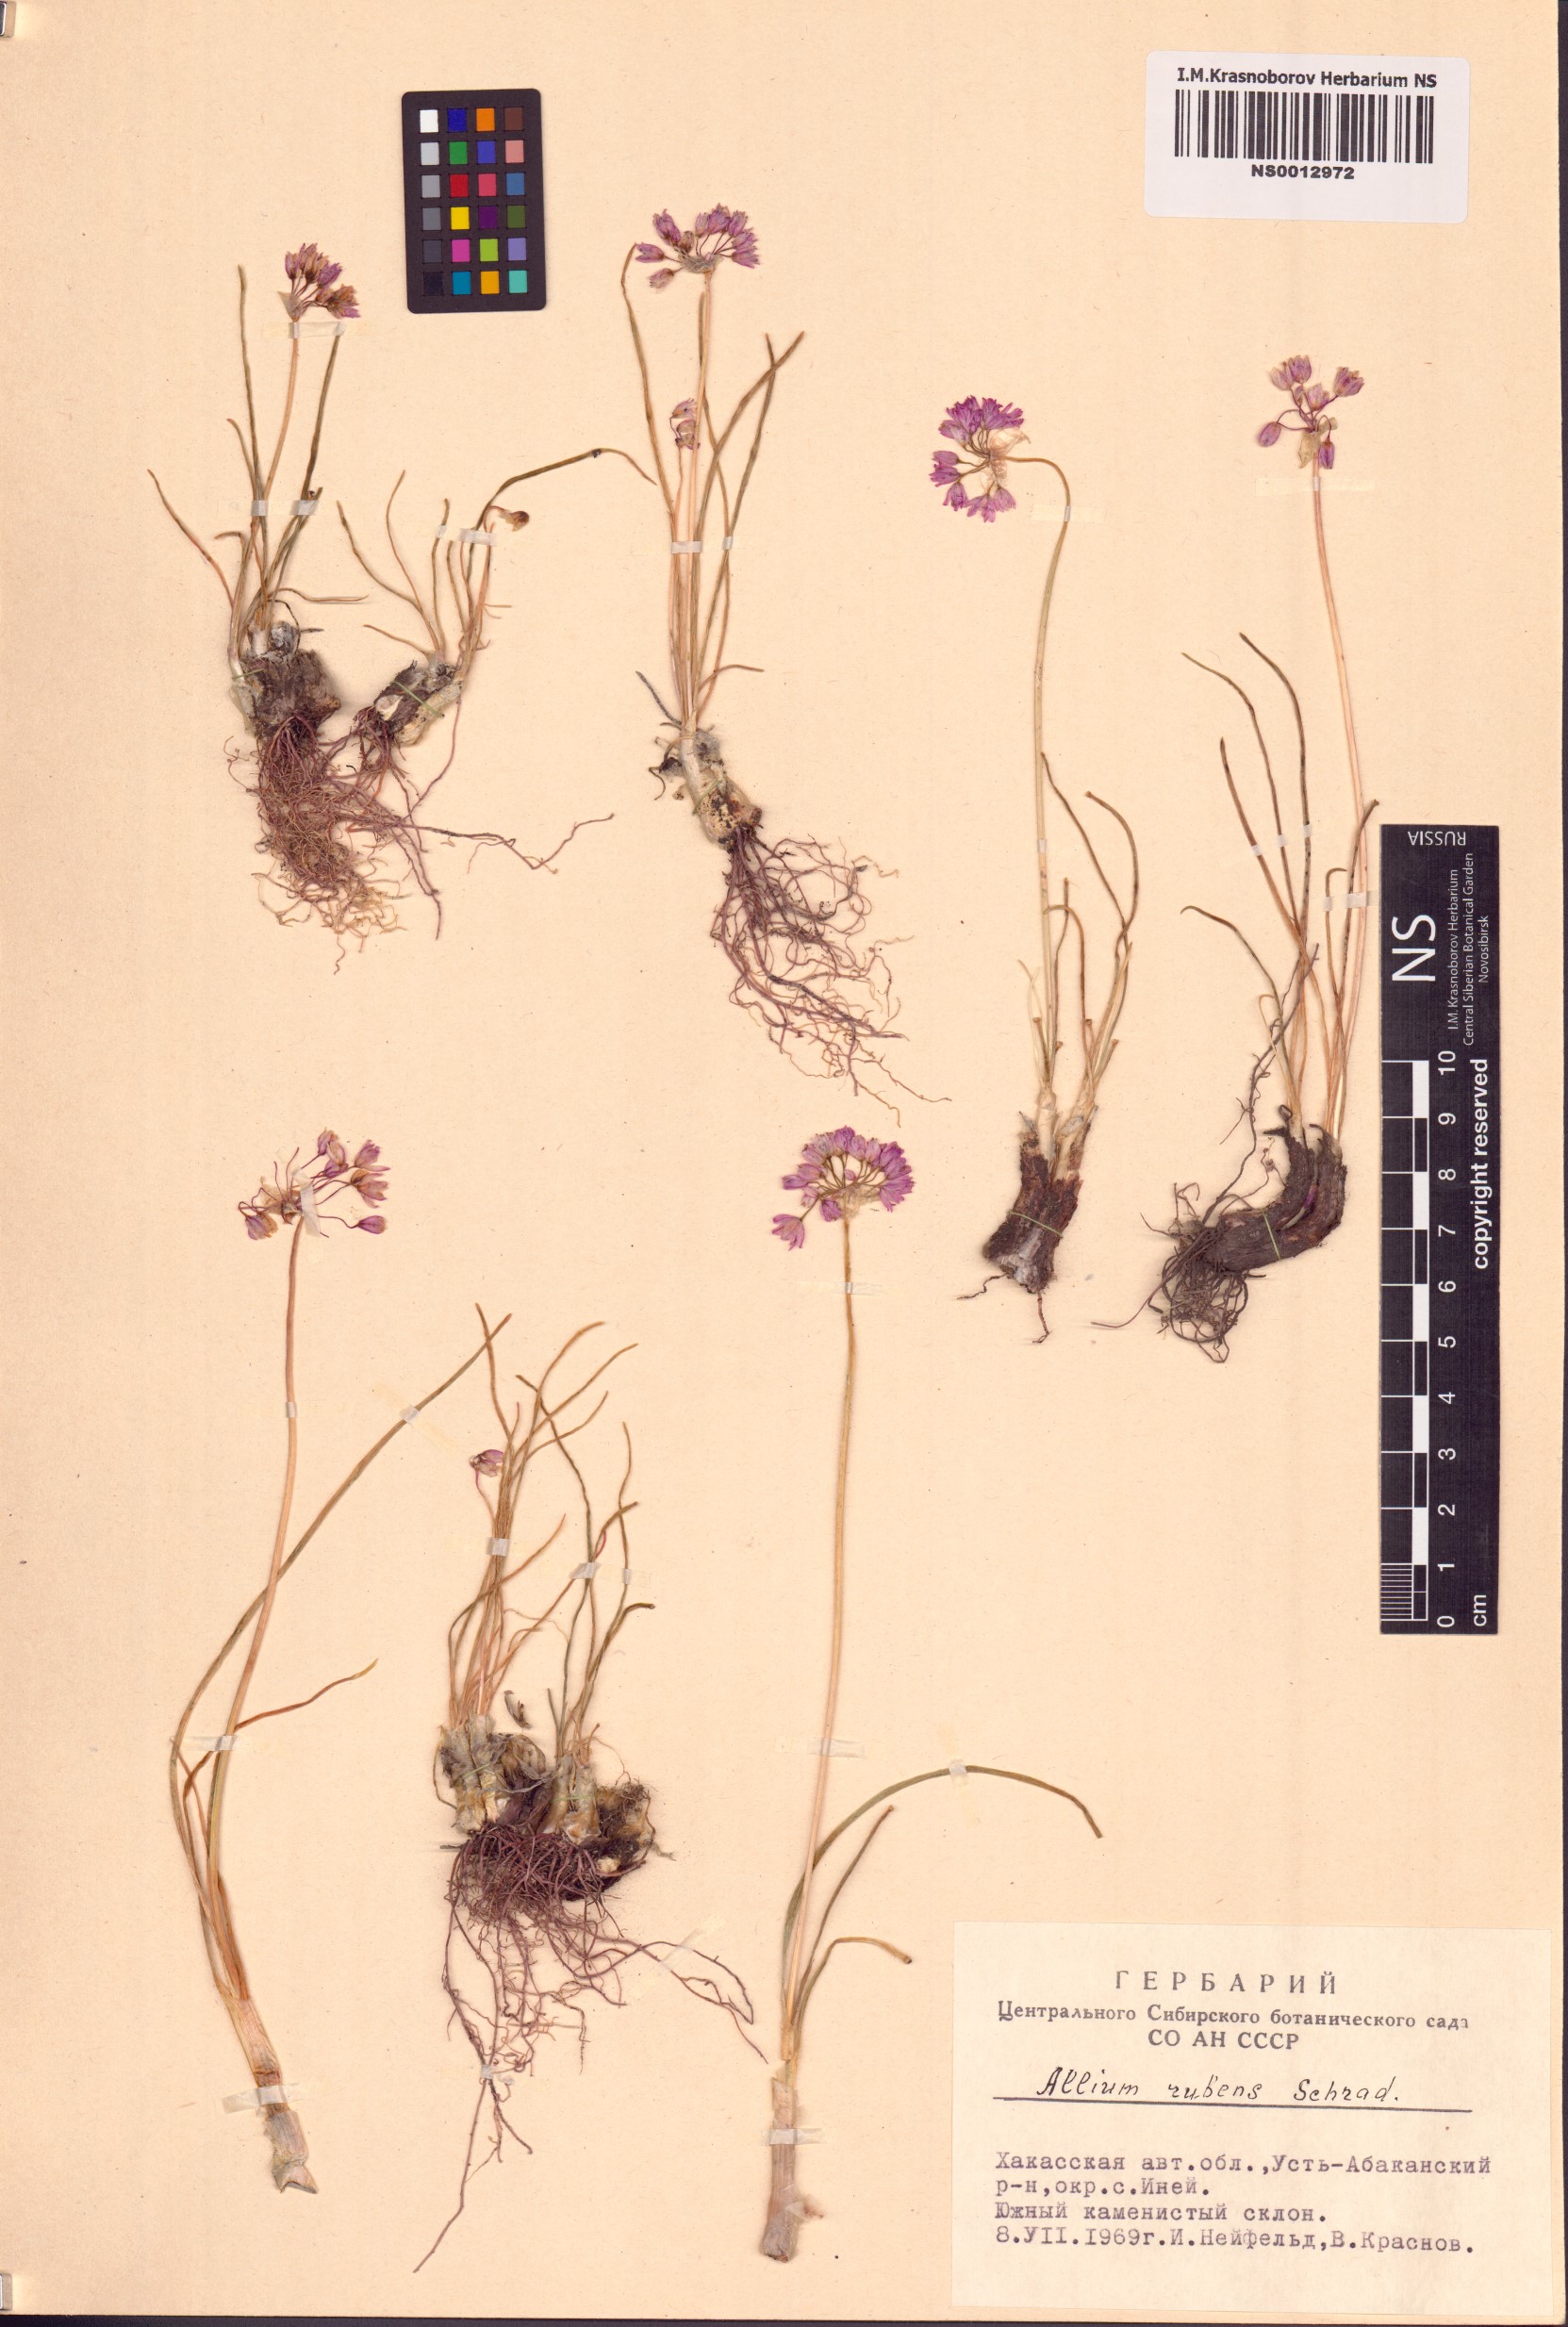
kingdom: Plantae
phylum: Tracheophyta
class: Liliopsida
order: Asparagales
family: Amaryllidaceae
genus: Allium
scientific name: Allium rubens
